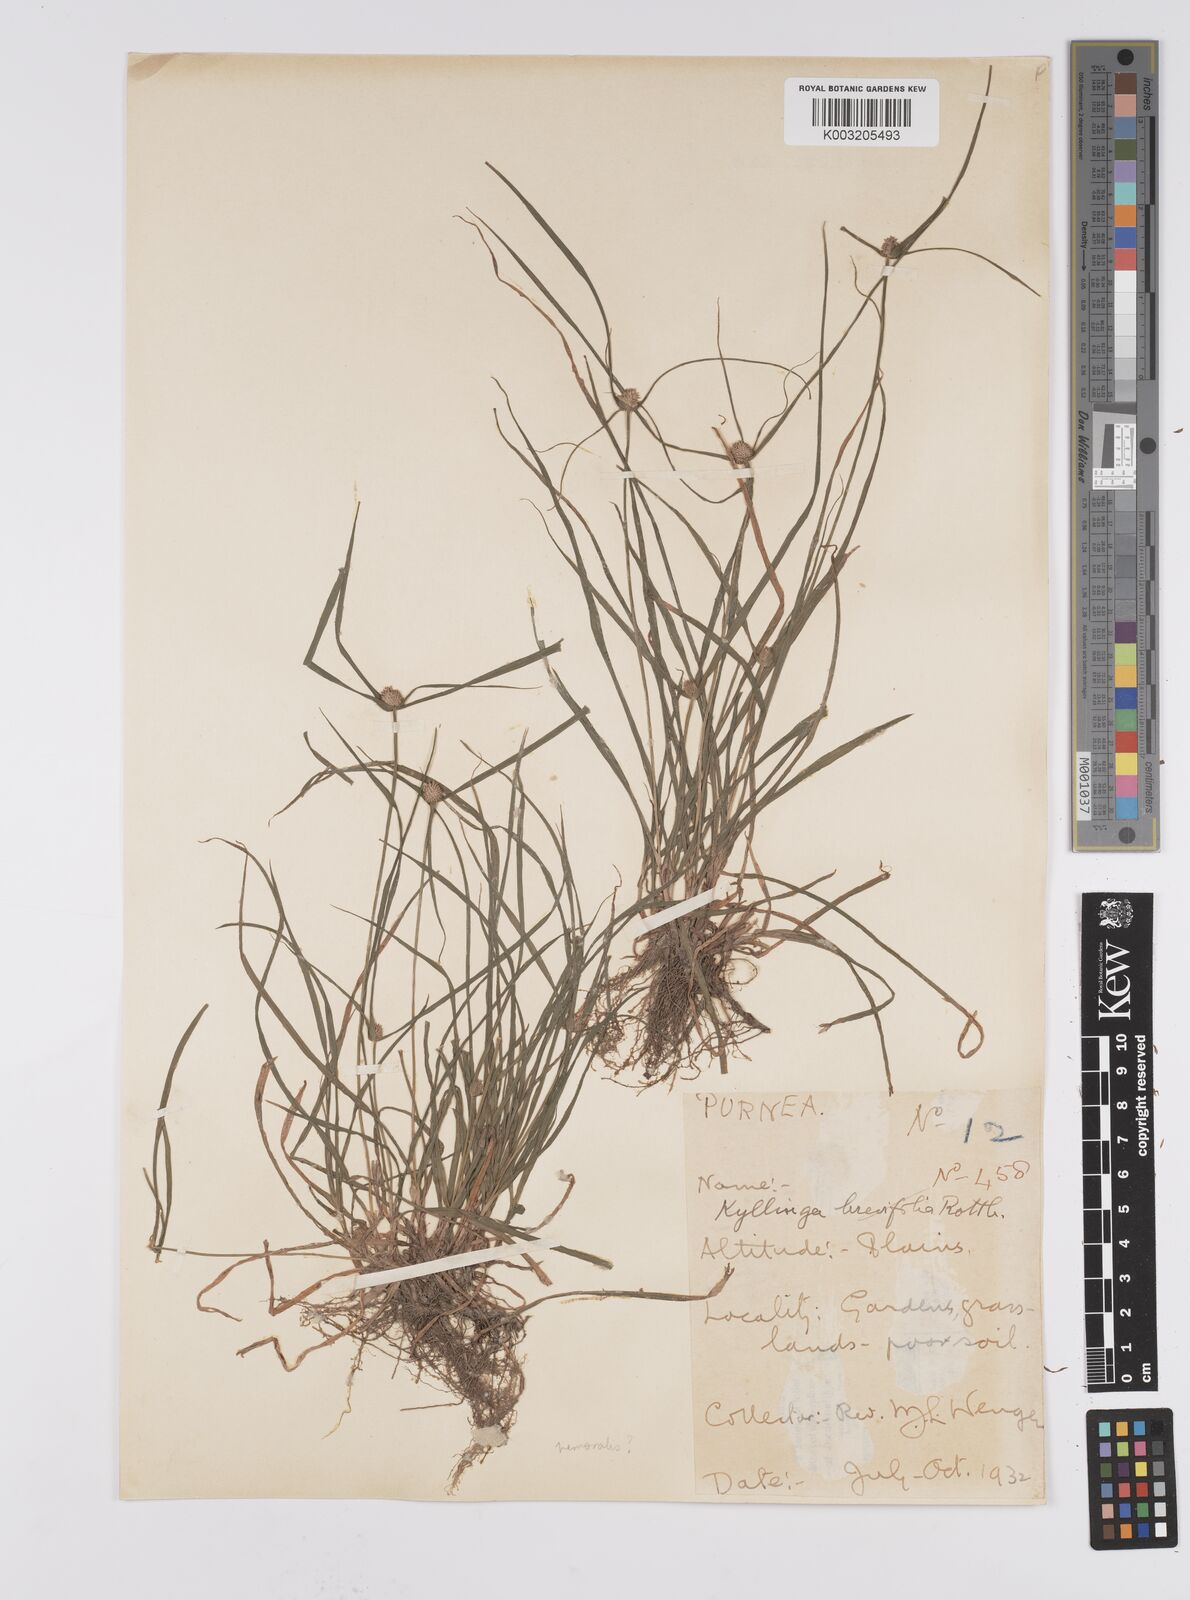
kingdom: Plantae
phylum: Tracheophyta
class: Liliopsida
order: Poales
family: Cyperaceae
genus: Cyperus
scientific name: Cyperus nemoralis
